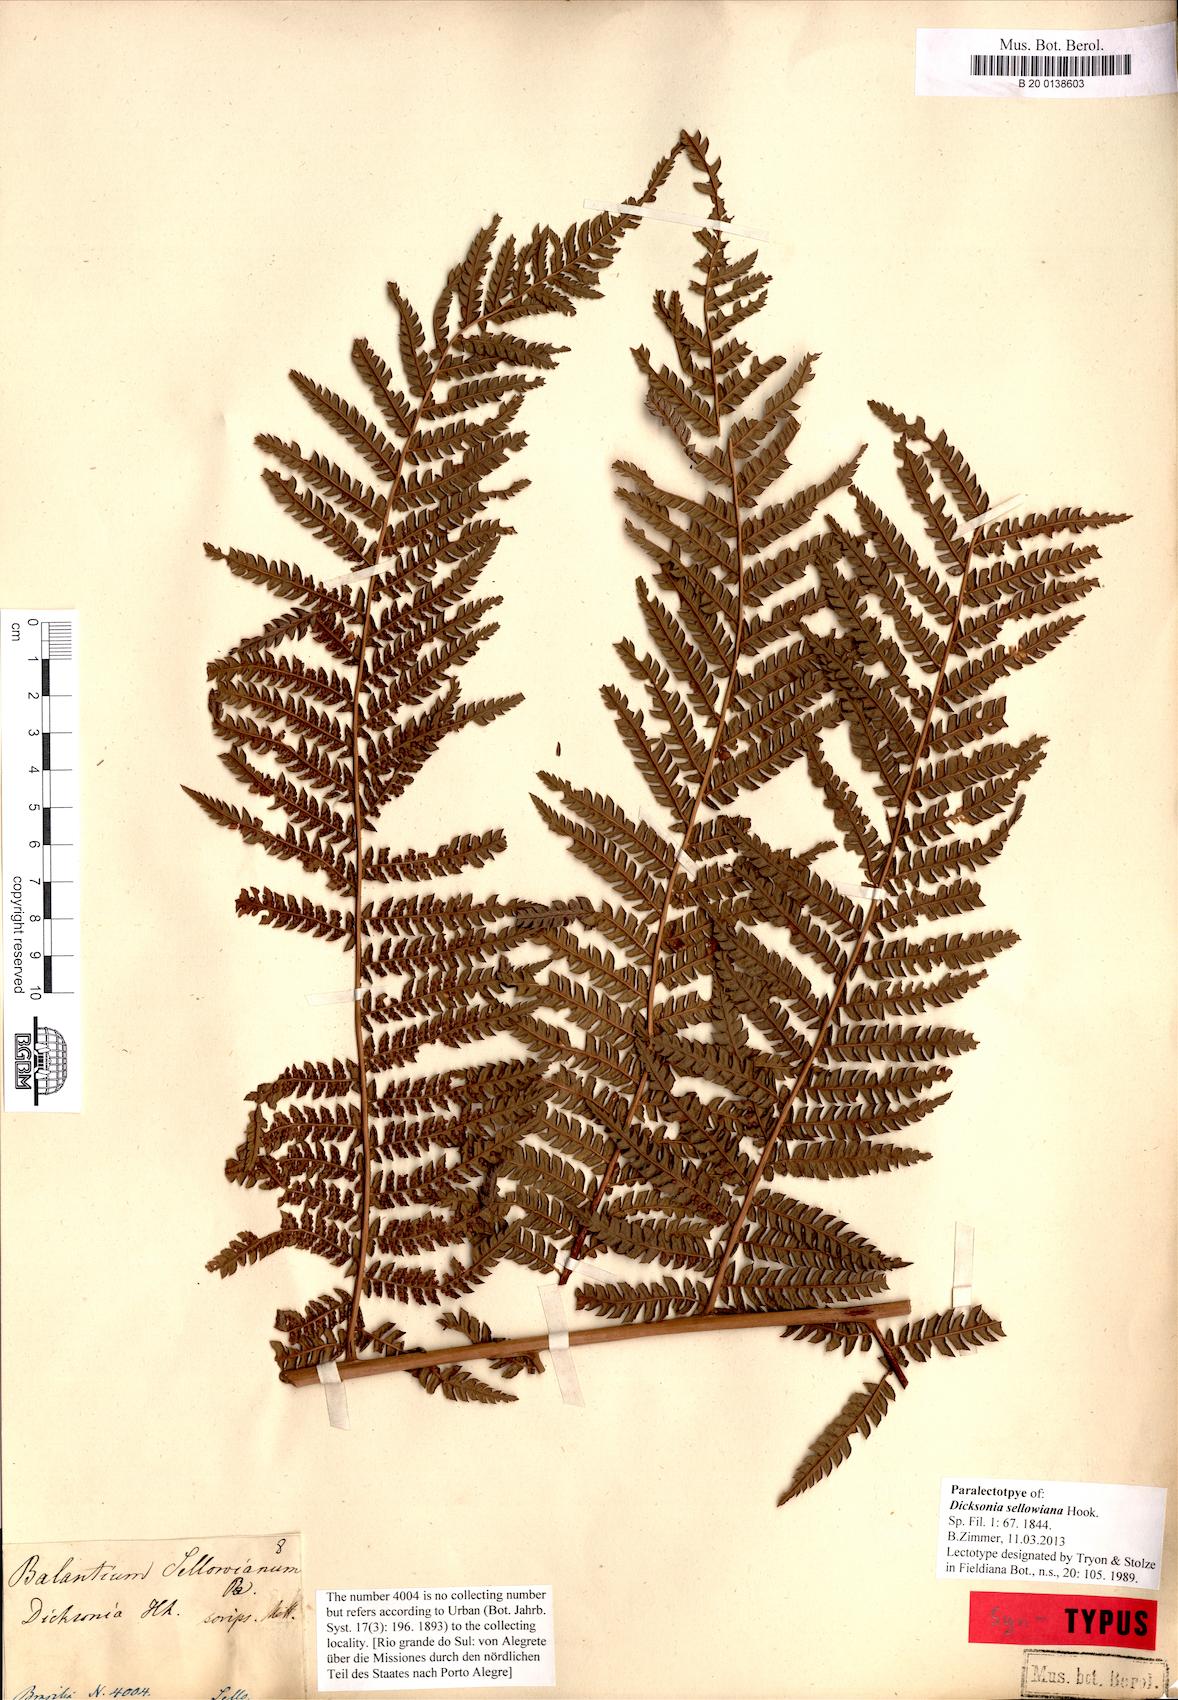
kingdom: Plantae
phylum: Tracheophyta
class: Polypodiopsida
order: Cyatheales
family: Dicksoniaceae
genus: Dicksonia
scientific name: Dicksonia sellowiana
